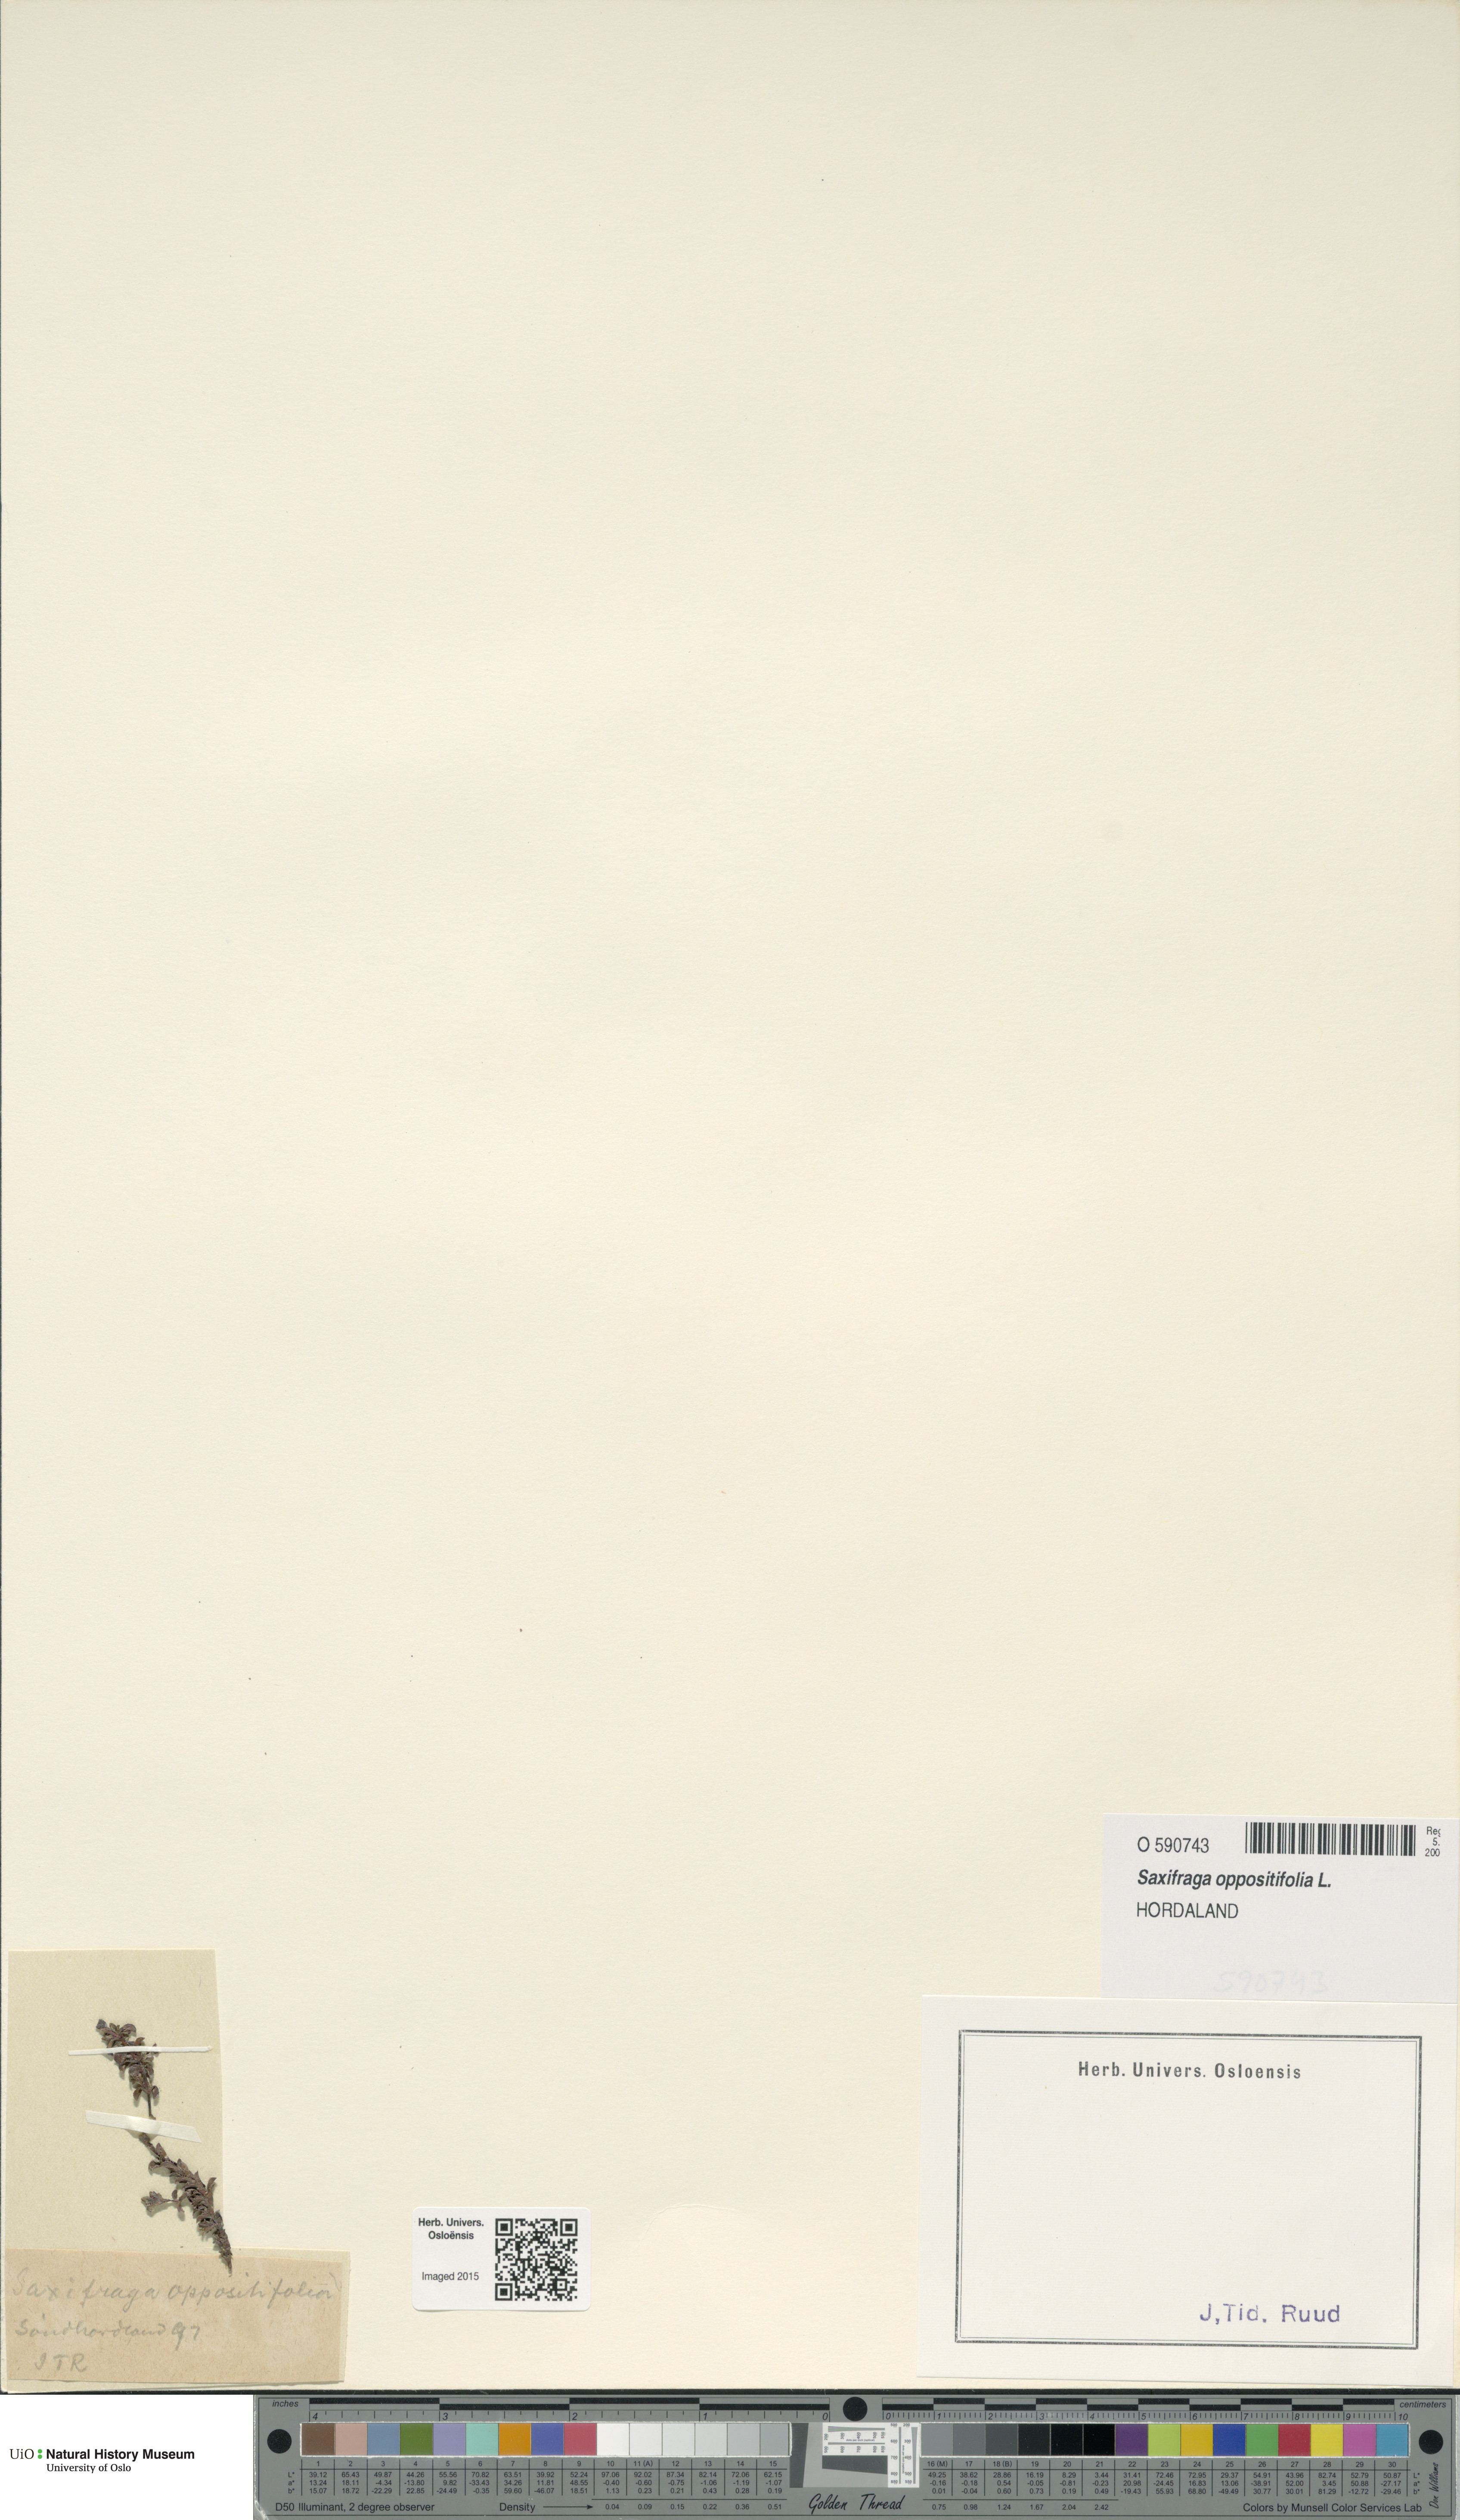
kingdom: Plantae
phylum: Tracheophyta
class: Magnoliopsida
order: Saxifragales
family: Saxifragaceae
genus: Saxifraga
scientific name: Saxifraga oppositifolia
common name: Purple saxifrage
